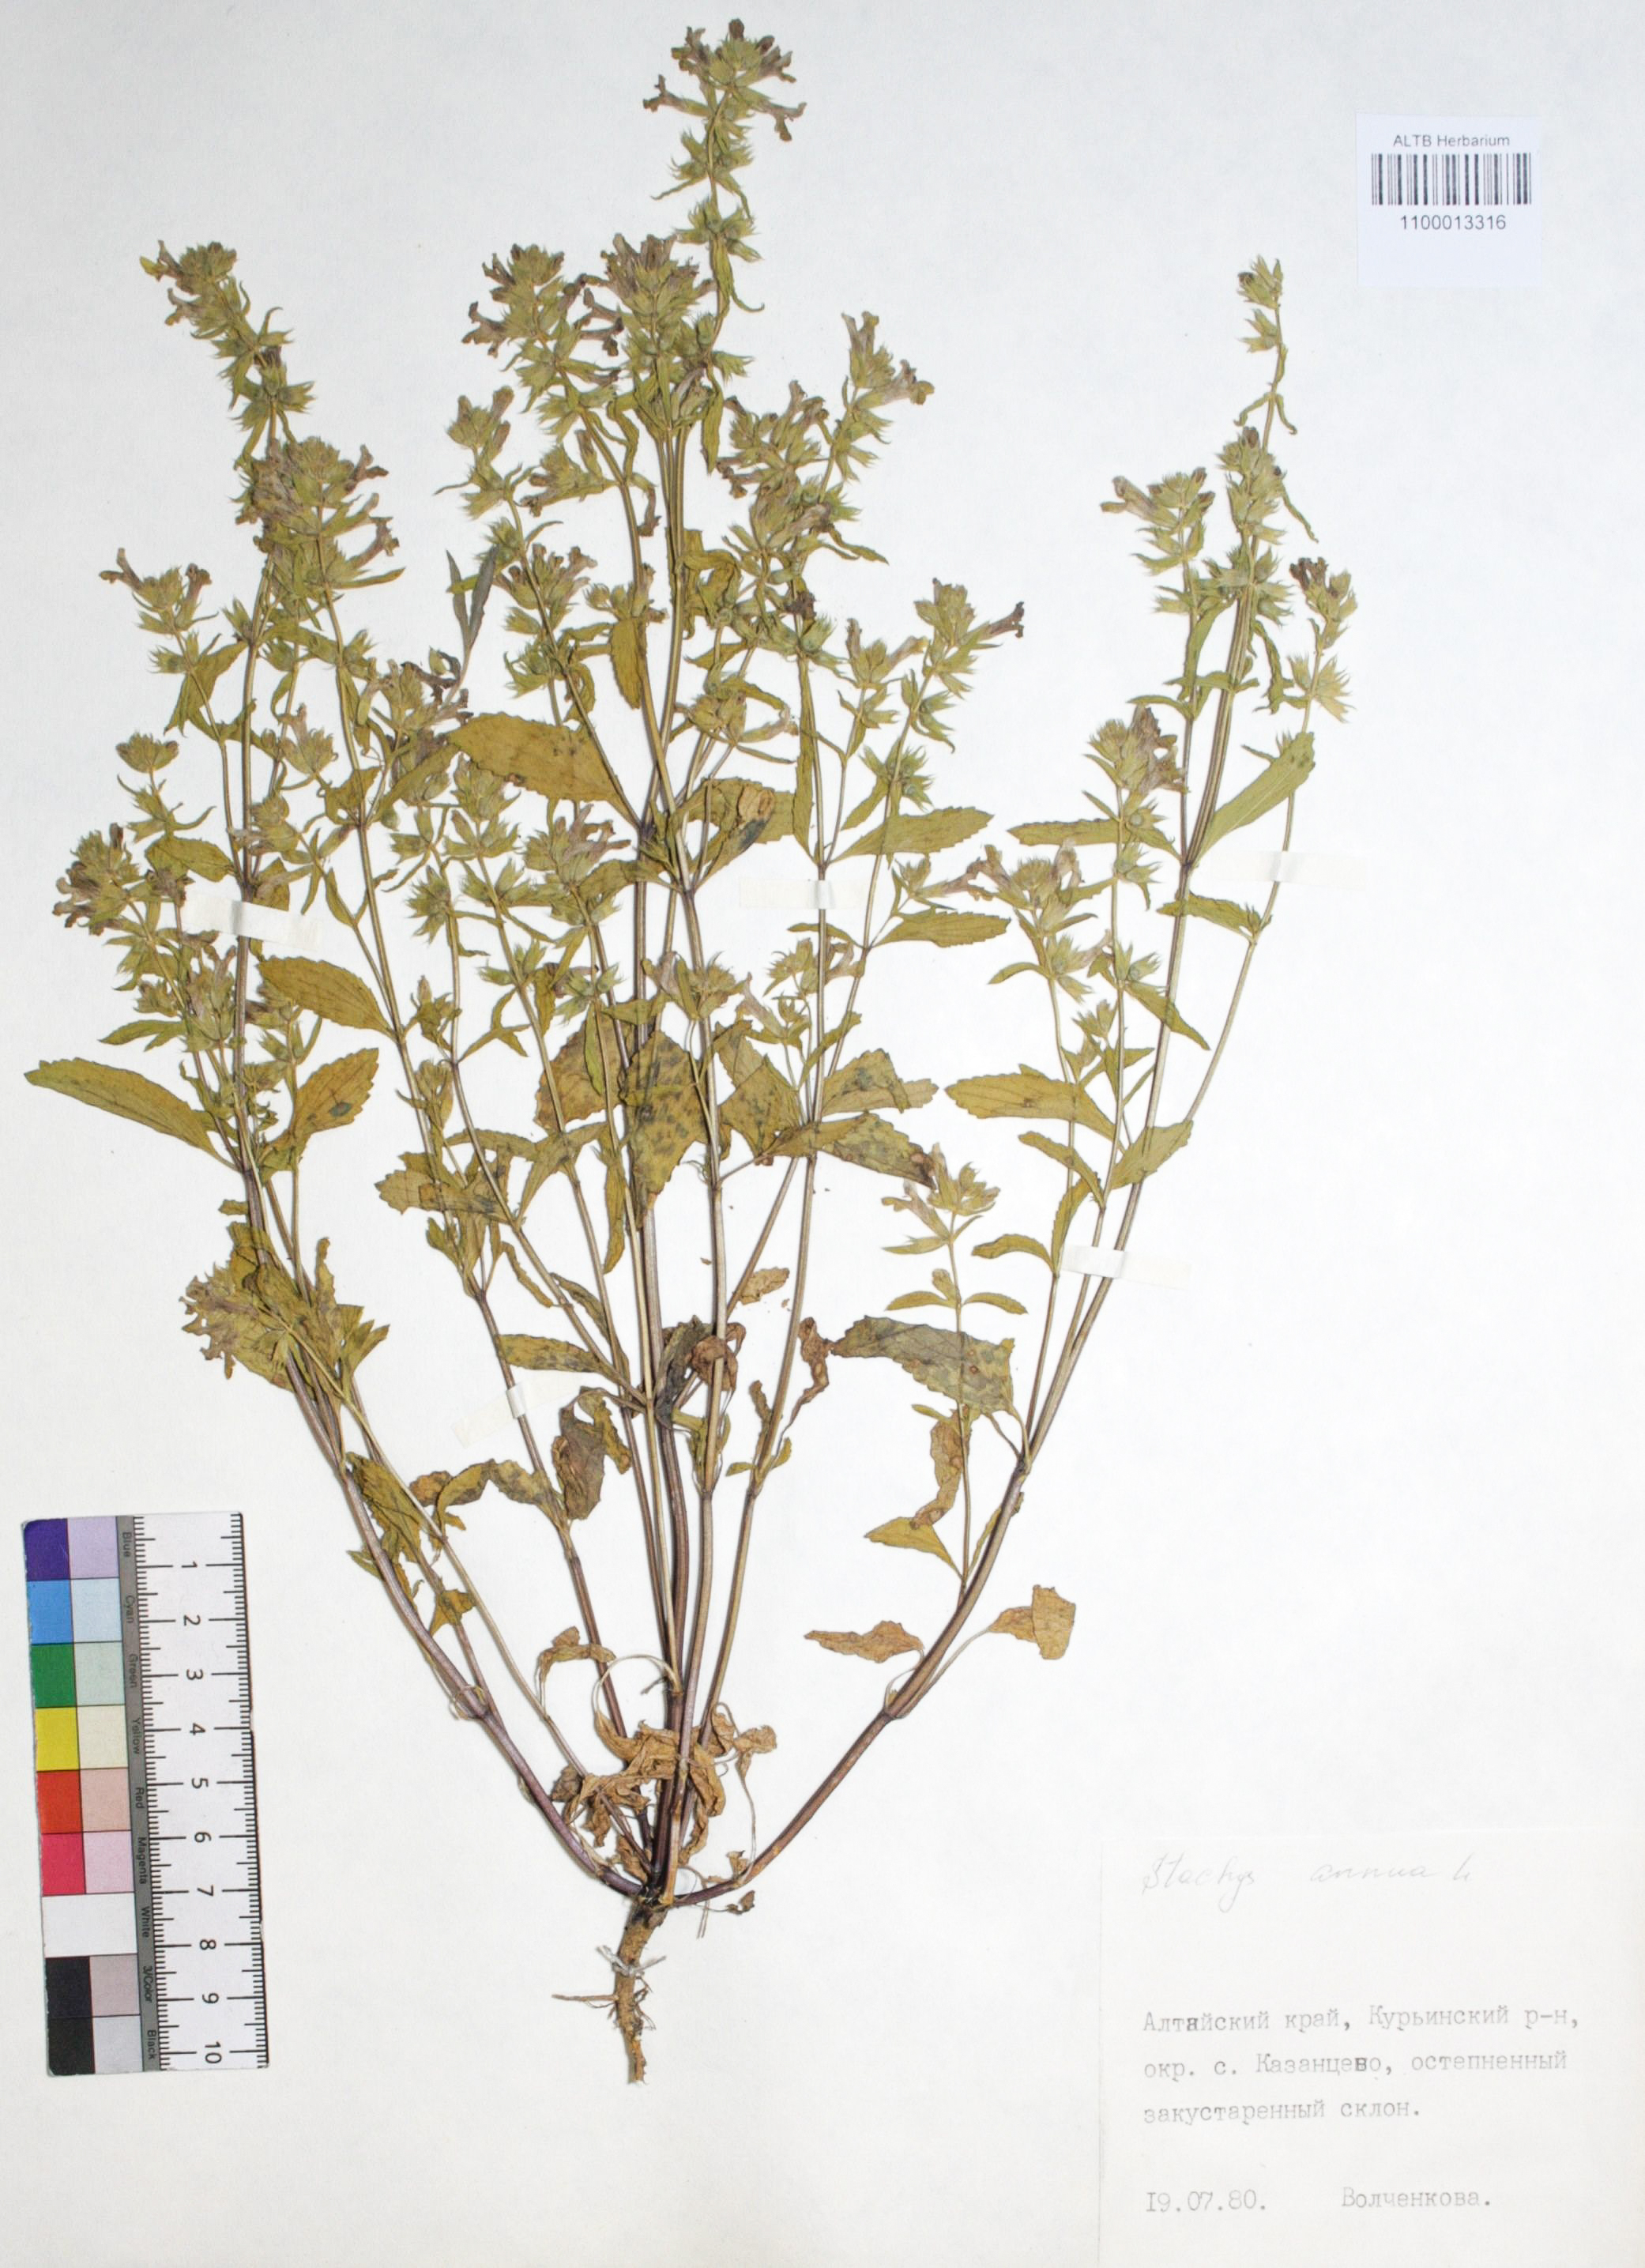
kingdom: Plantae
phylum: Tracheophyta
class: Magnoliopsida
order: Lamiales
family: Lamiaceae
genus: Stachys
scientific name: Stachys annua
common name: Annual yellow-woundwort
